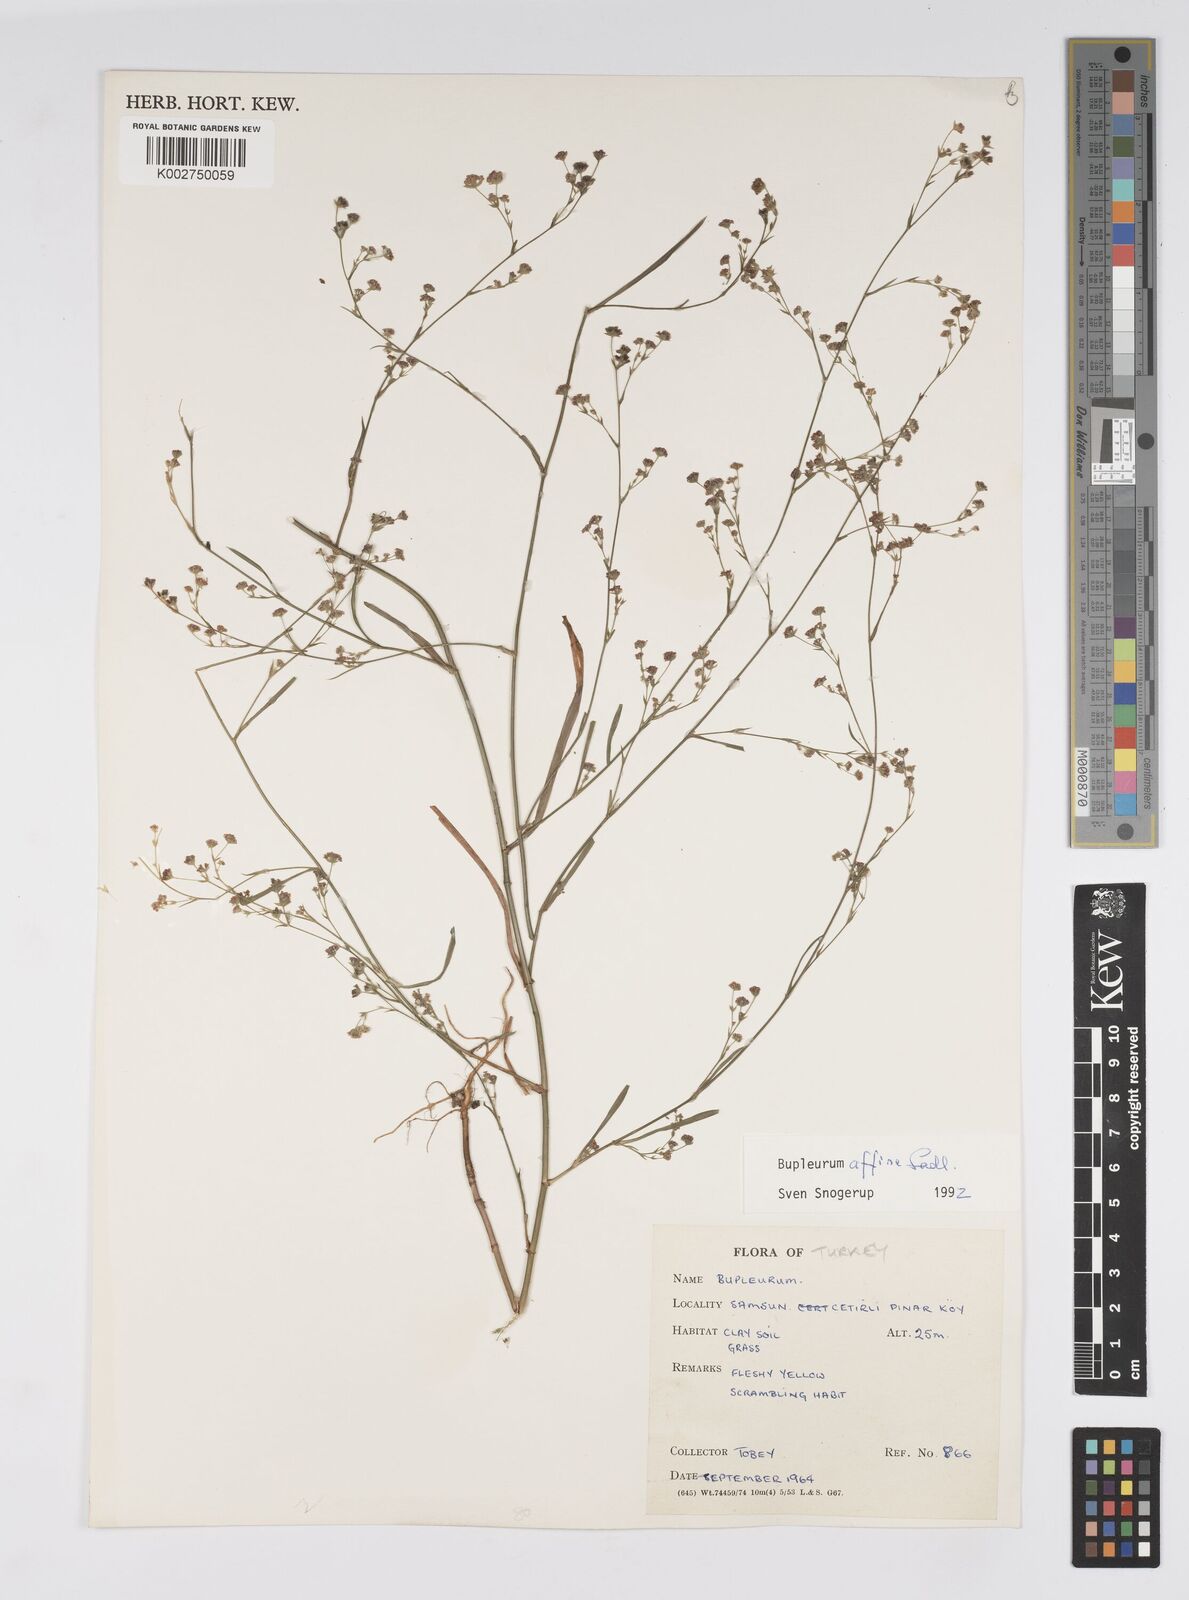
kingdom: Plantae
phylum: Tracheophyta
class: Magnoliopsida
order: Apiales
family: Apiaceae
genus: Bupleurum
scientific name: Bupleurum
